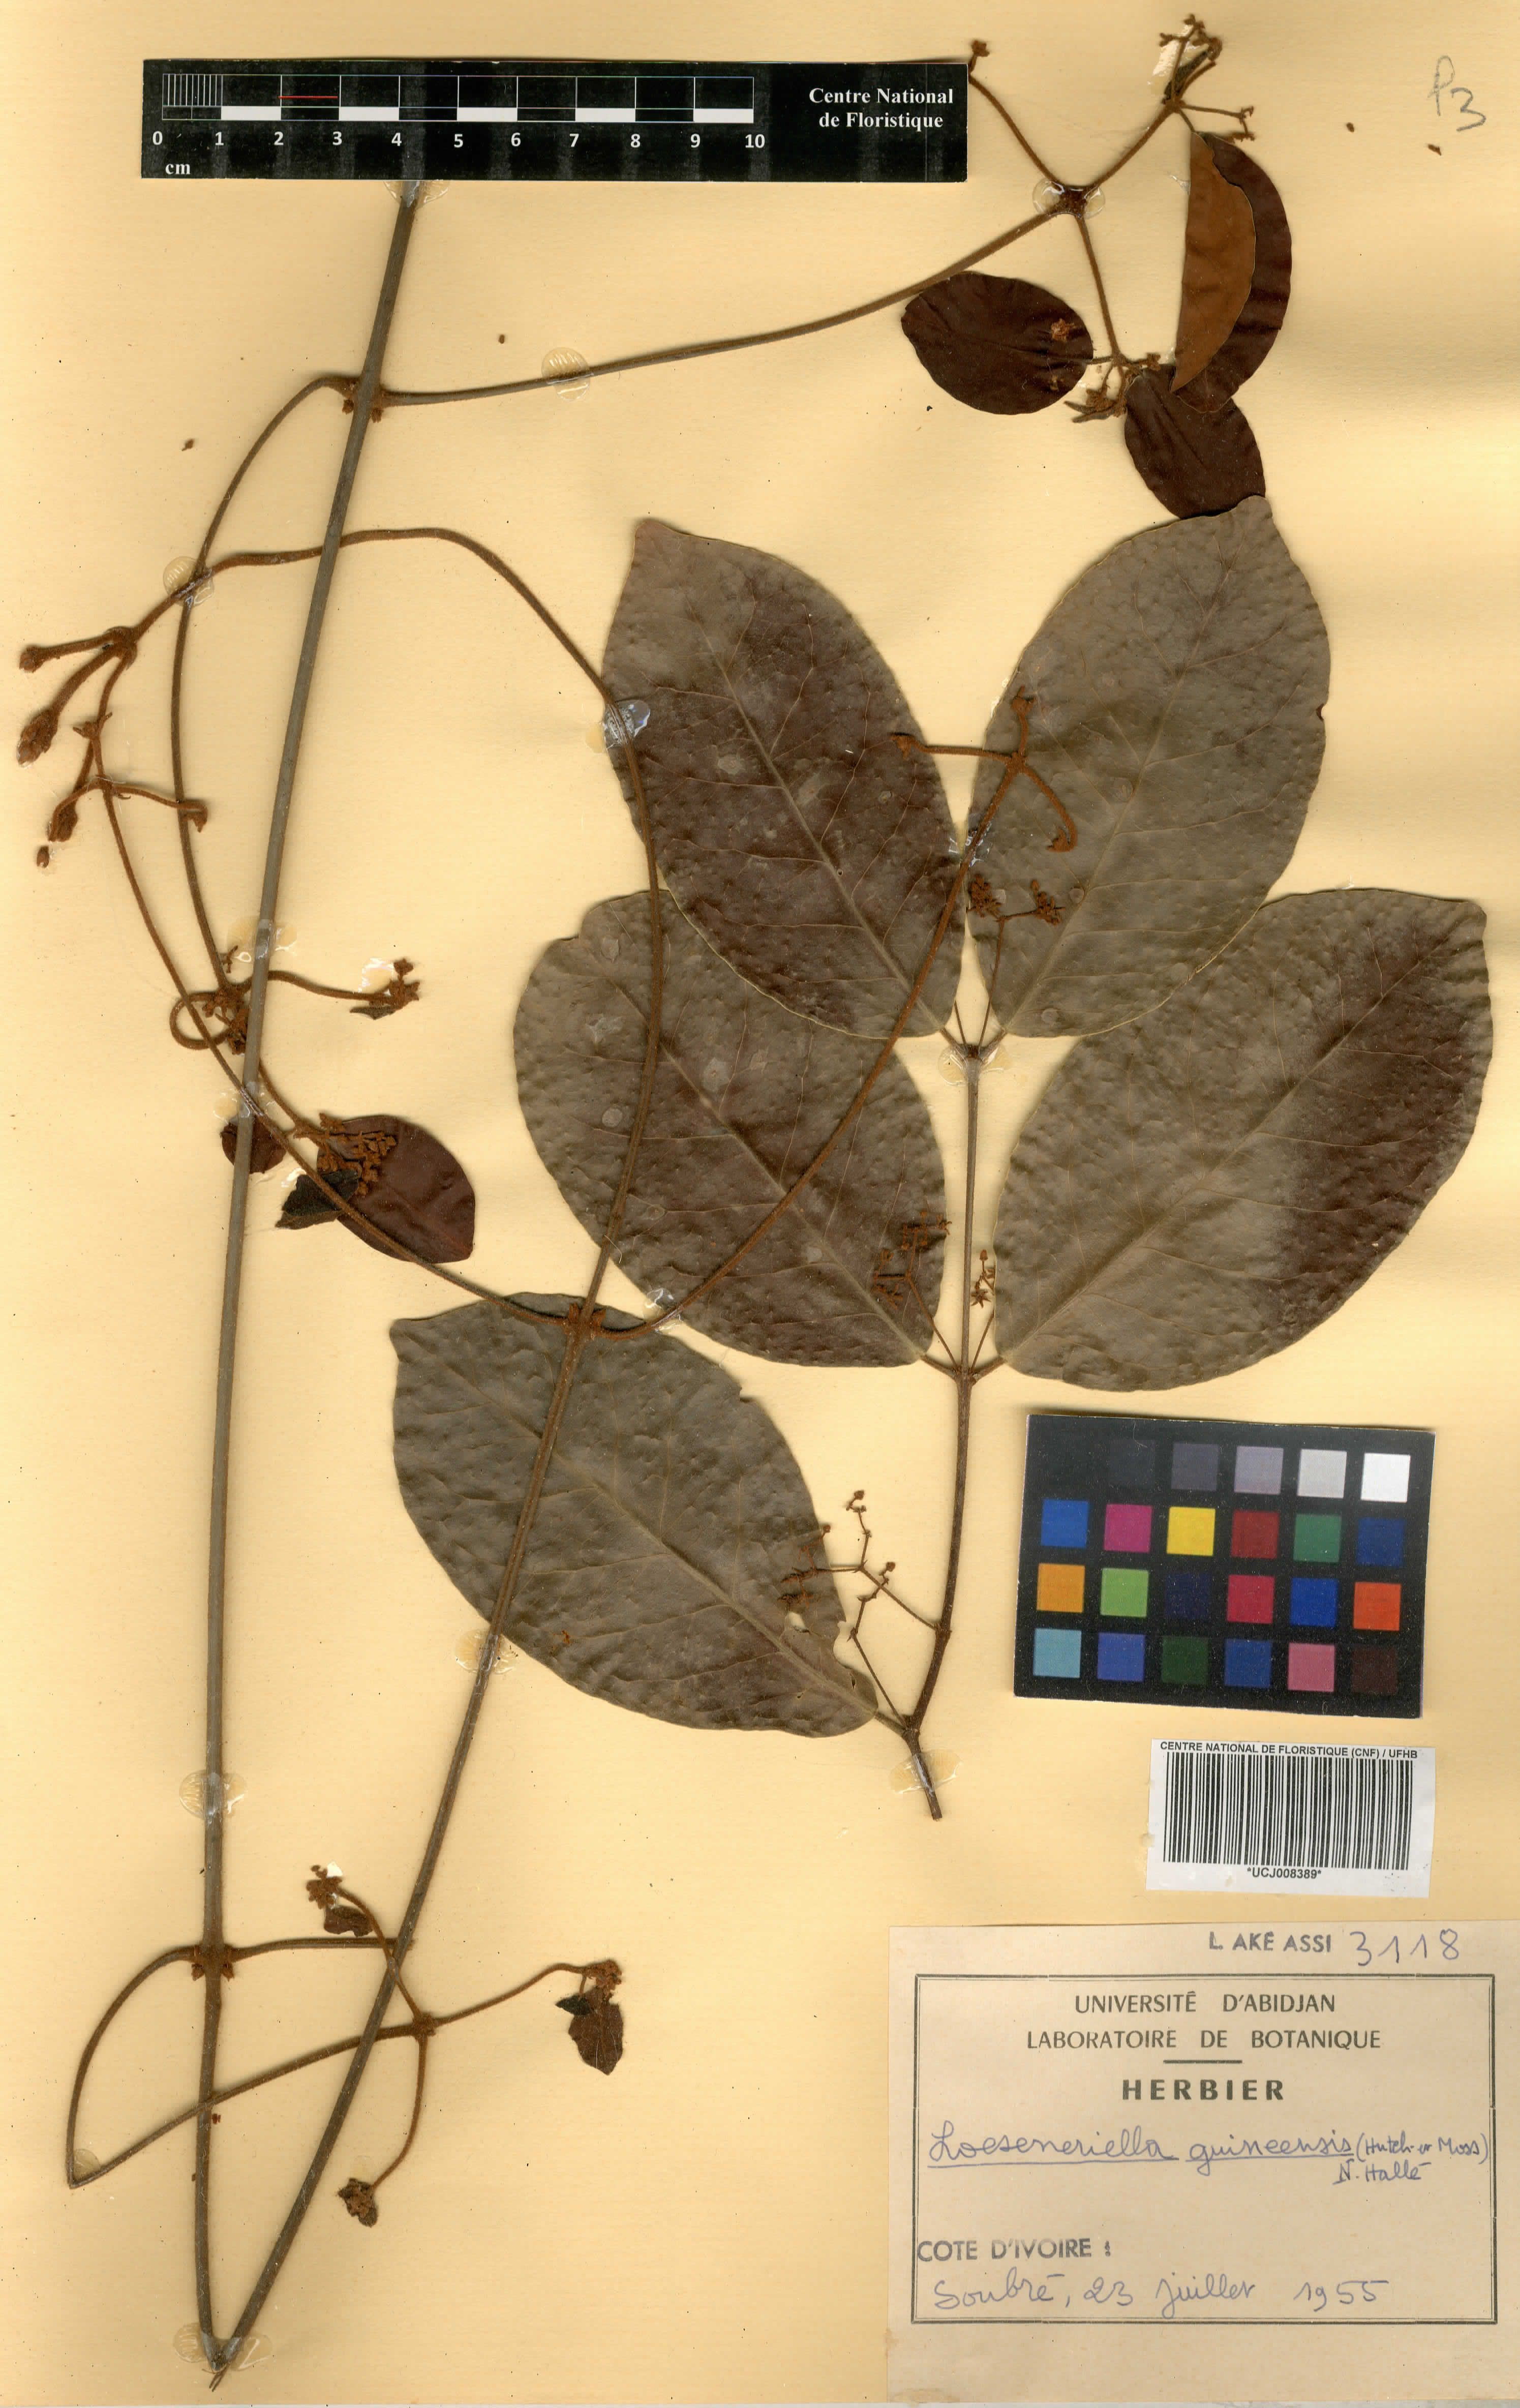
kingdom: Plantae
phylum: Tracheophyta
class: Magnoliopsida
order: Celastrales
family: Celastraceae
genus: Loeseneriella
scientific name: Loeseneriella apocynoides
